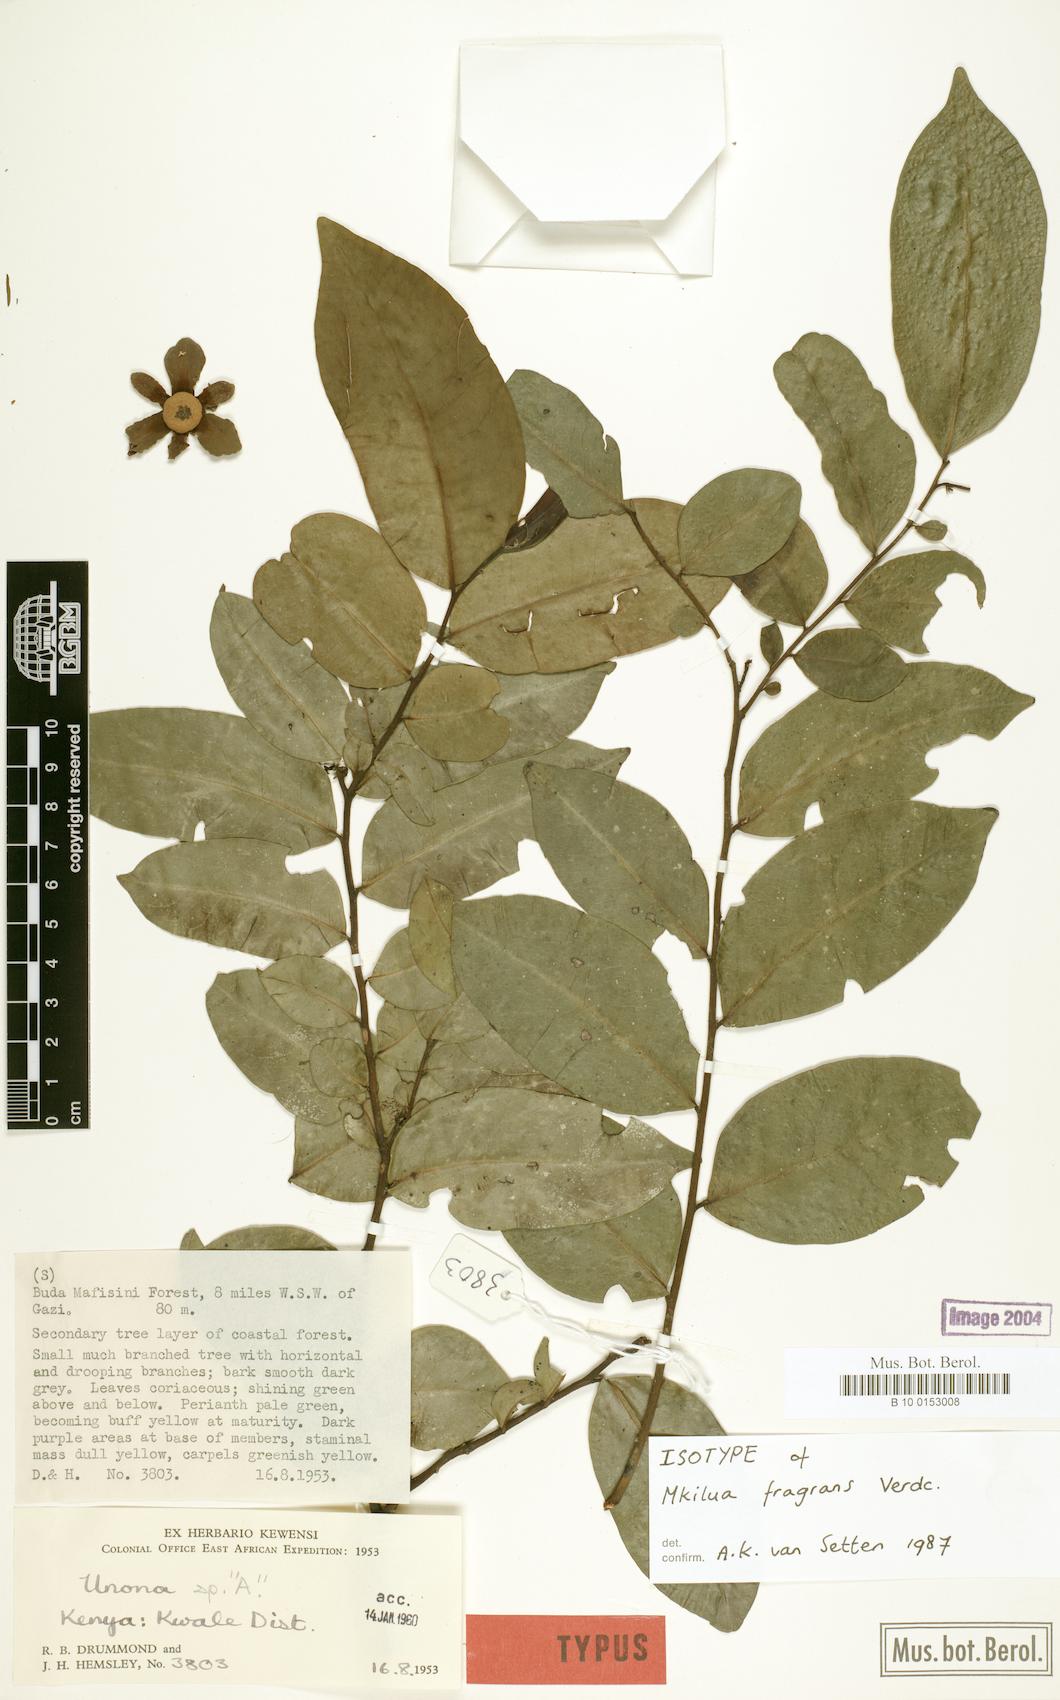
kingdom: Plantae
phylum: Tracheophyta
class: Magnoliopsida
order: Magnoliales
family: Annonaceae
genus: Mkilua
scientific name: Mkilua fragrans
